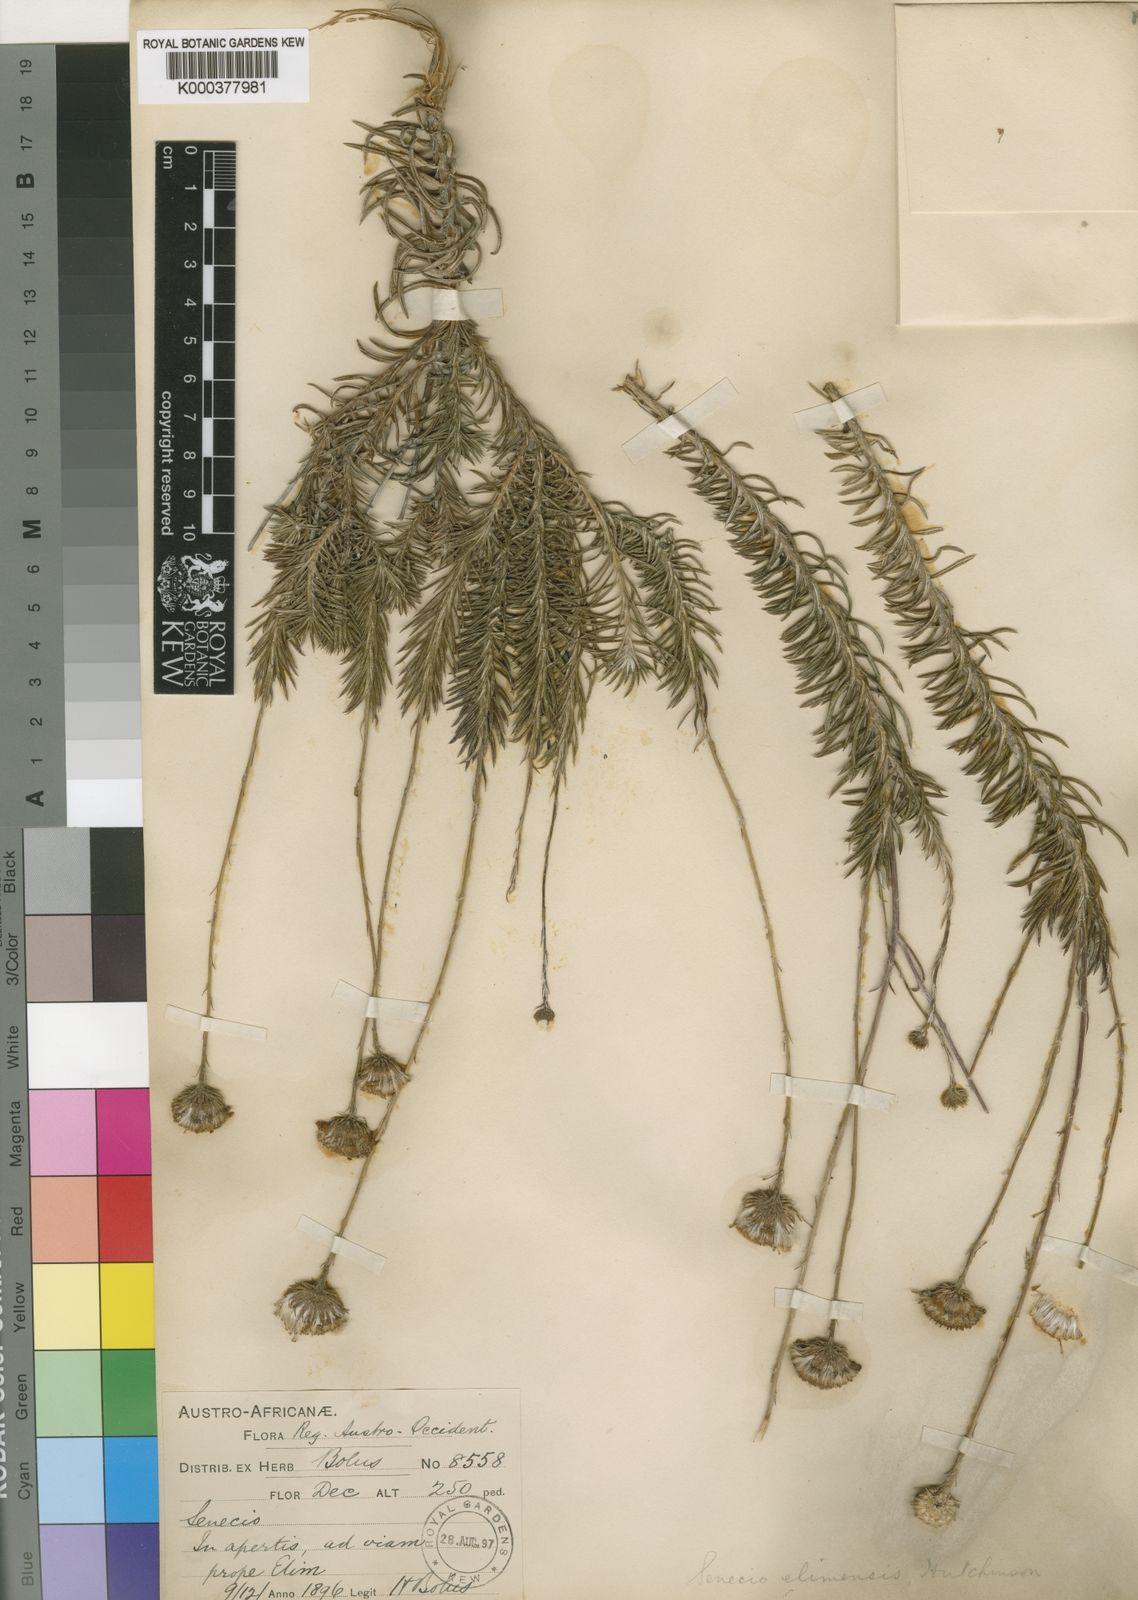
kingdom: Plantae
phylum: Tracheophyta
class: Magnoliopsida
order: Asterales
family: Asteraceae
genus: Senecio
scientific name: Senecio
